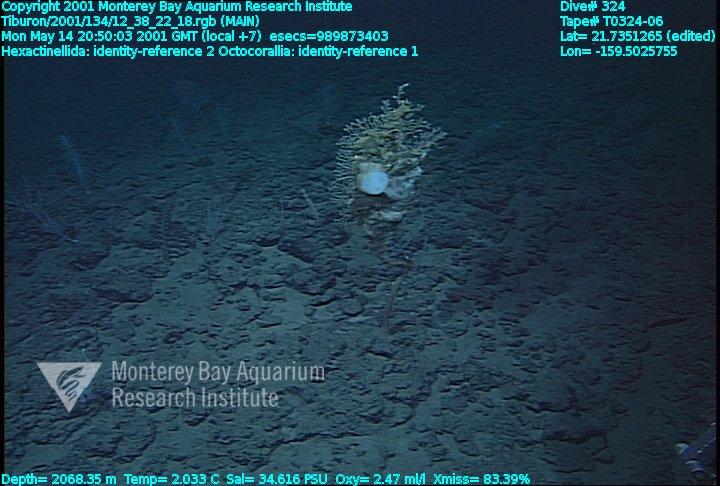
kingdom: Animalia
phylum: Porifera
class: Hexactinellida
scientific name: Hexactinellida
